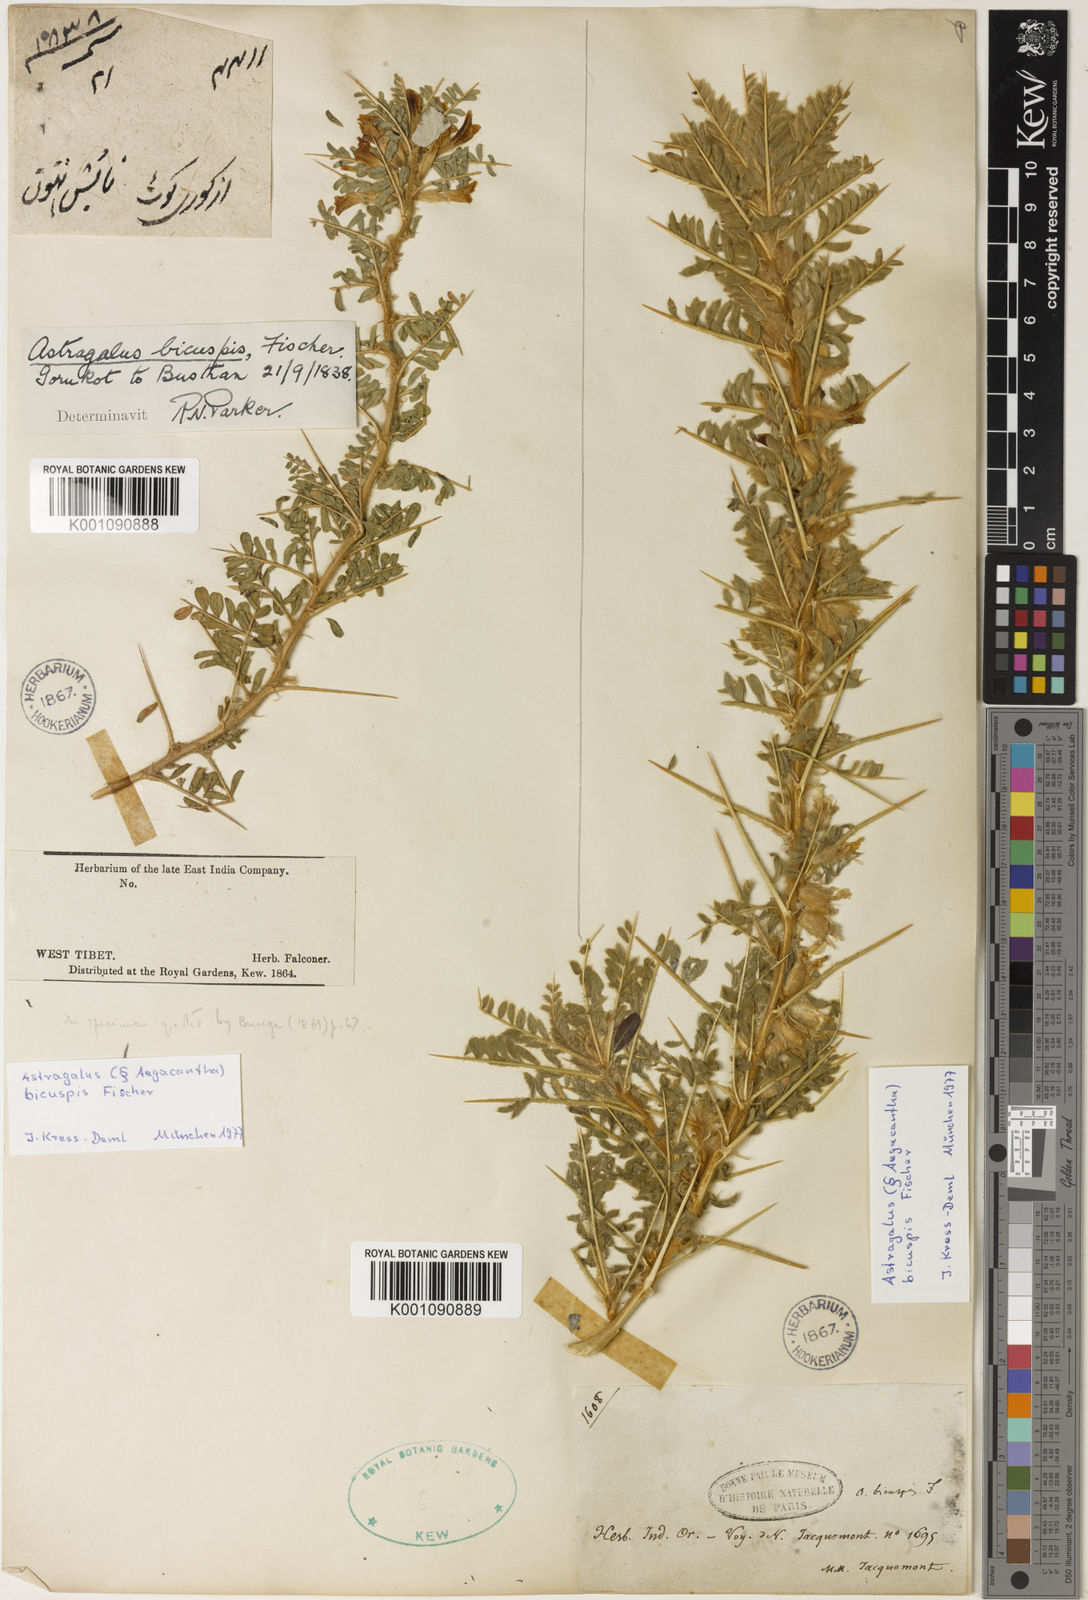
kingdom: Plantae
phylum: Tracheophyta
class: Magnoliopsida
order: Fabales
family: Fabaceae
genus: Astragalus
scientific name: Astragalus
